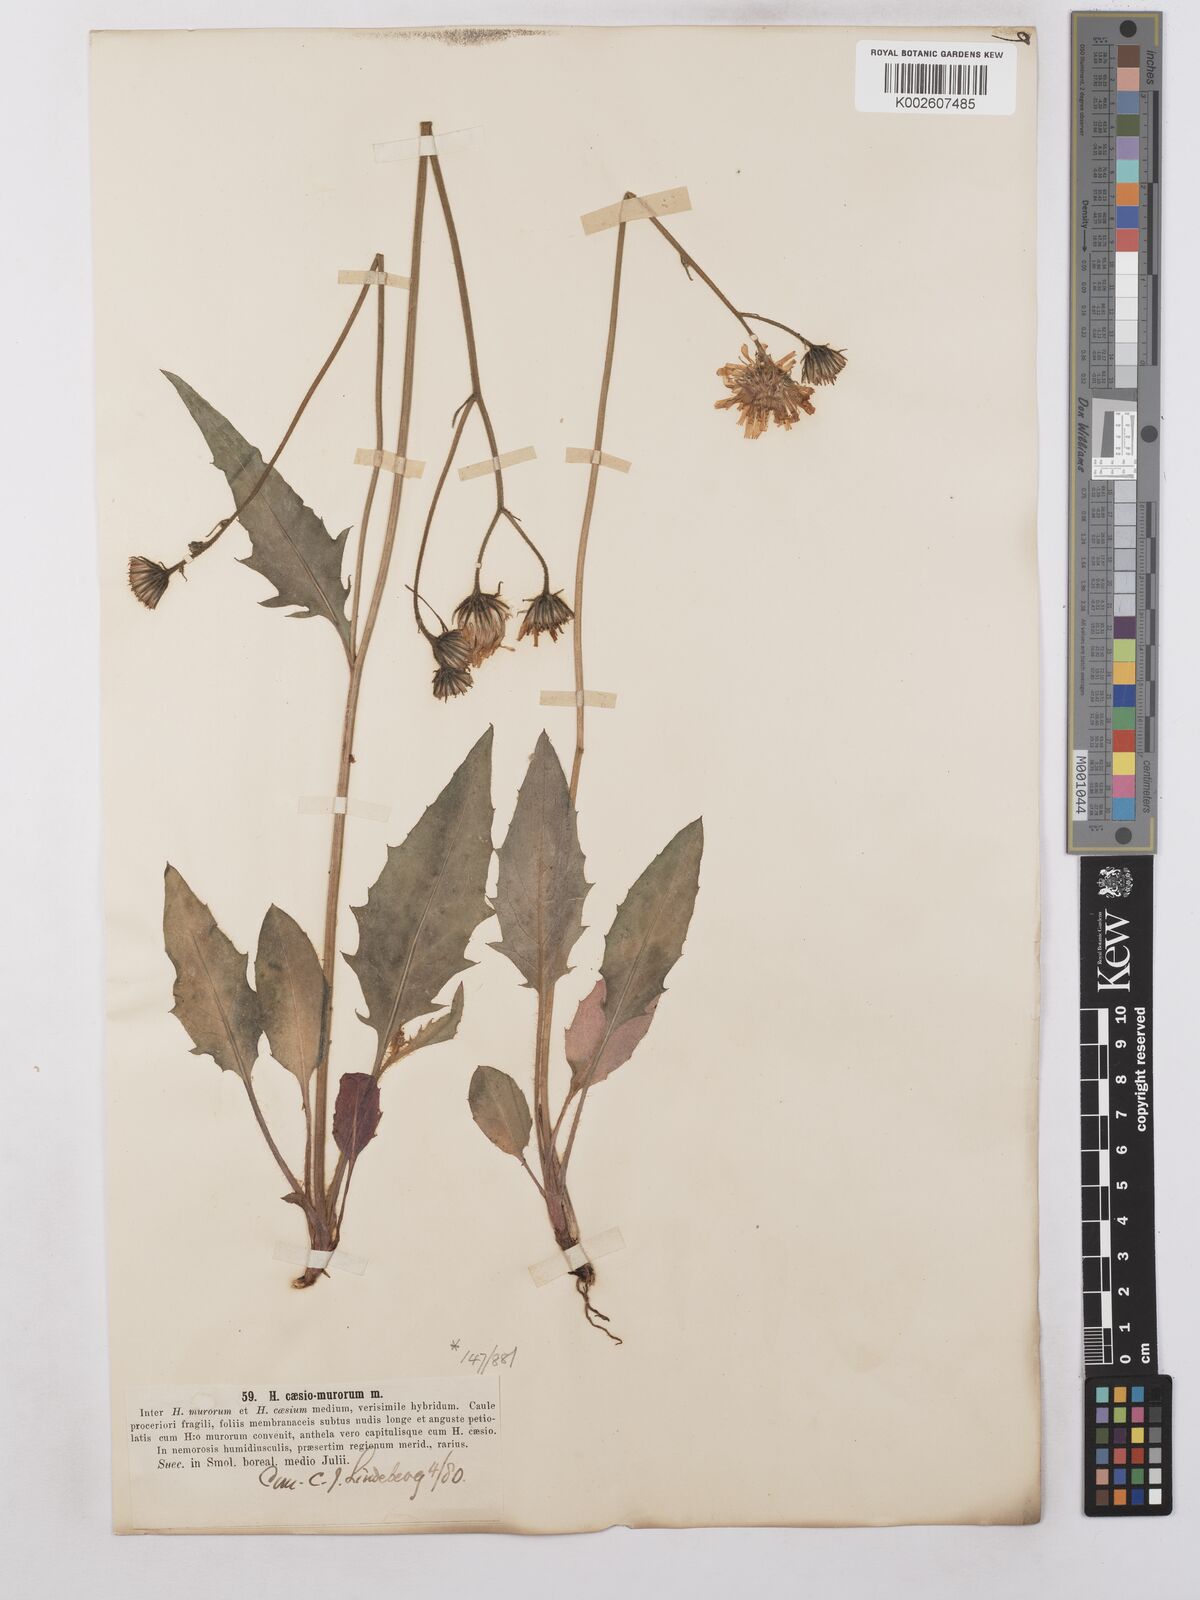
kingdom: Plantae
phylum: Tracheophyta
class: Magnoliopsida
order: Asterales
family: Asteraceae
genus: Hieracium
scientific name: Hieracium caesium
